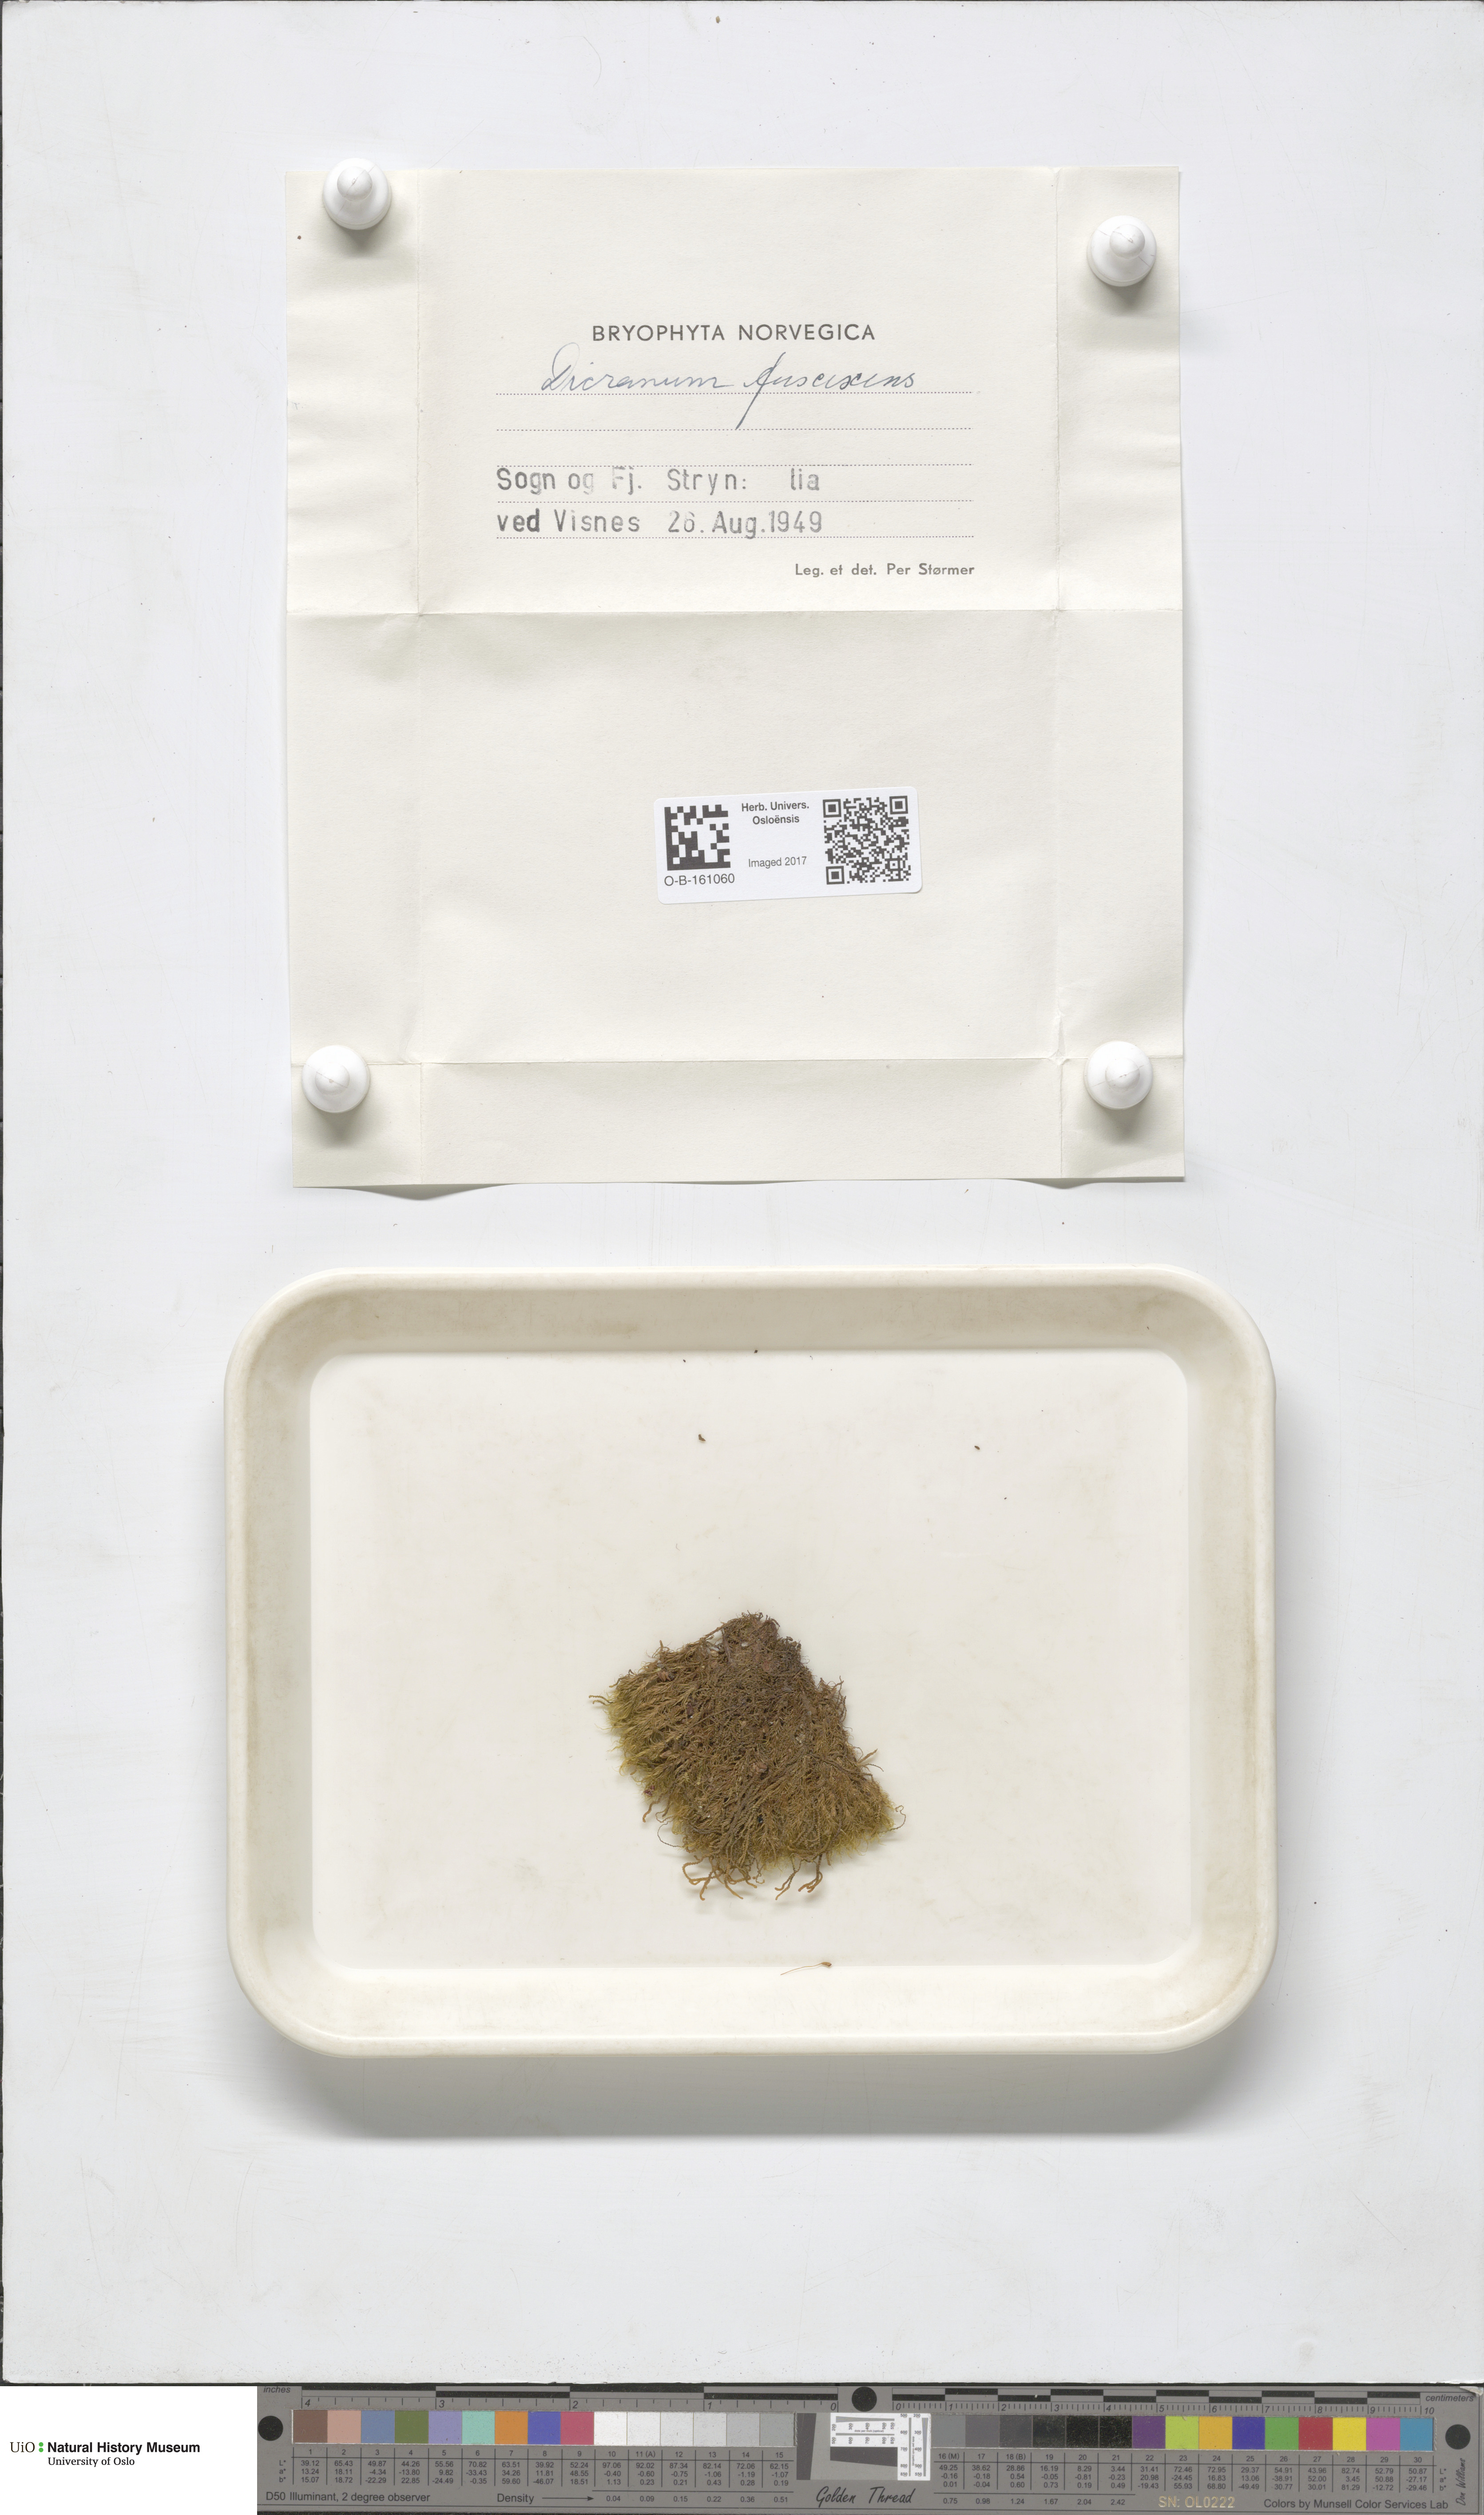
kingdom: Plantae
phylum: Bryophyta
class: Bryopsida
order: Dicranales
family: Dicranaceae
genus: Dicranum
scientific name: Dicranum fuscescens
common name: Curly heron's-bill moss
